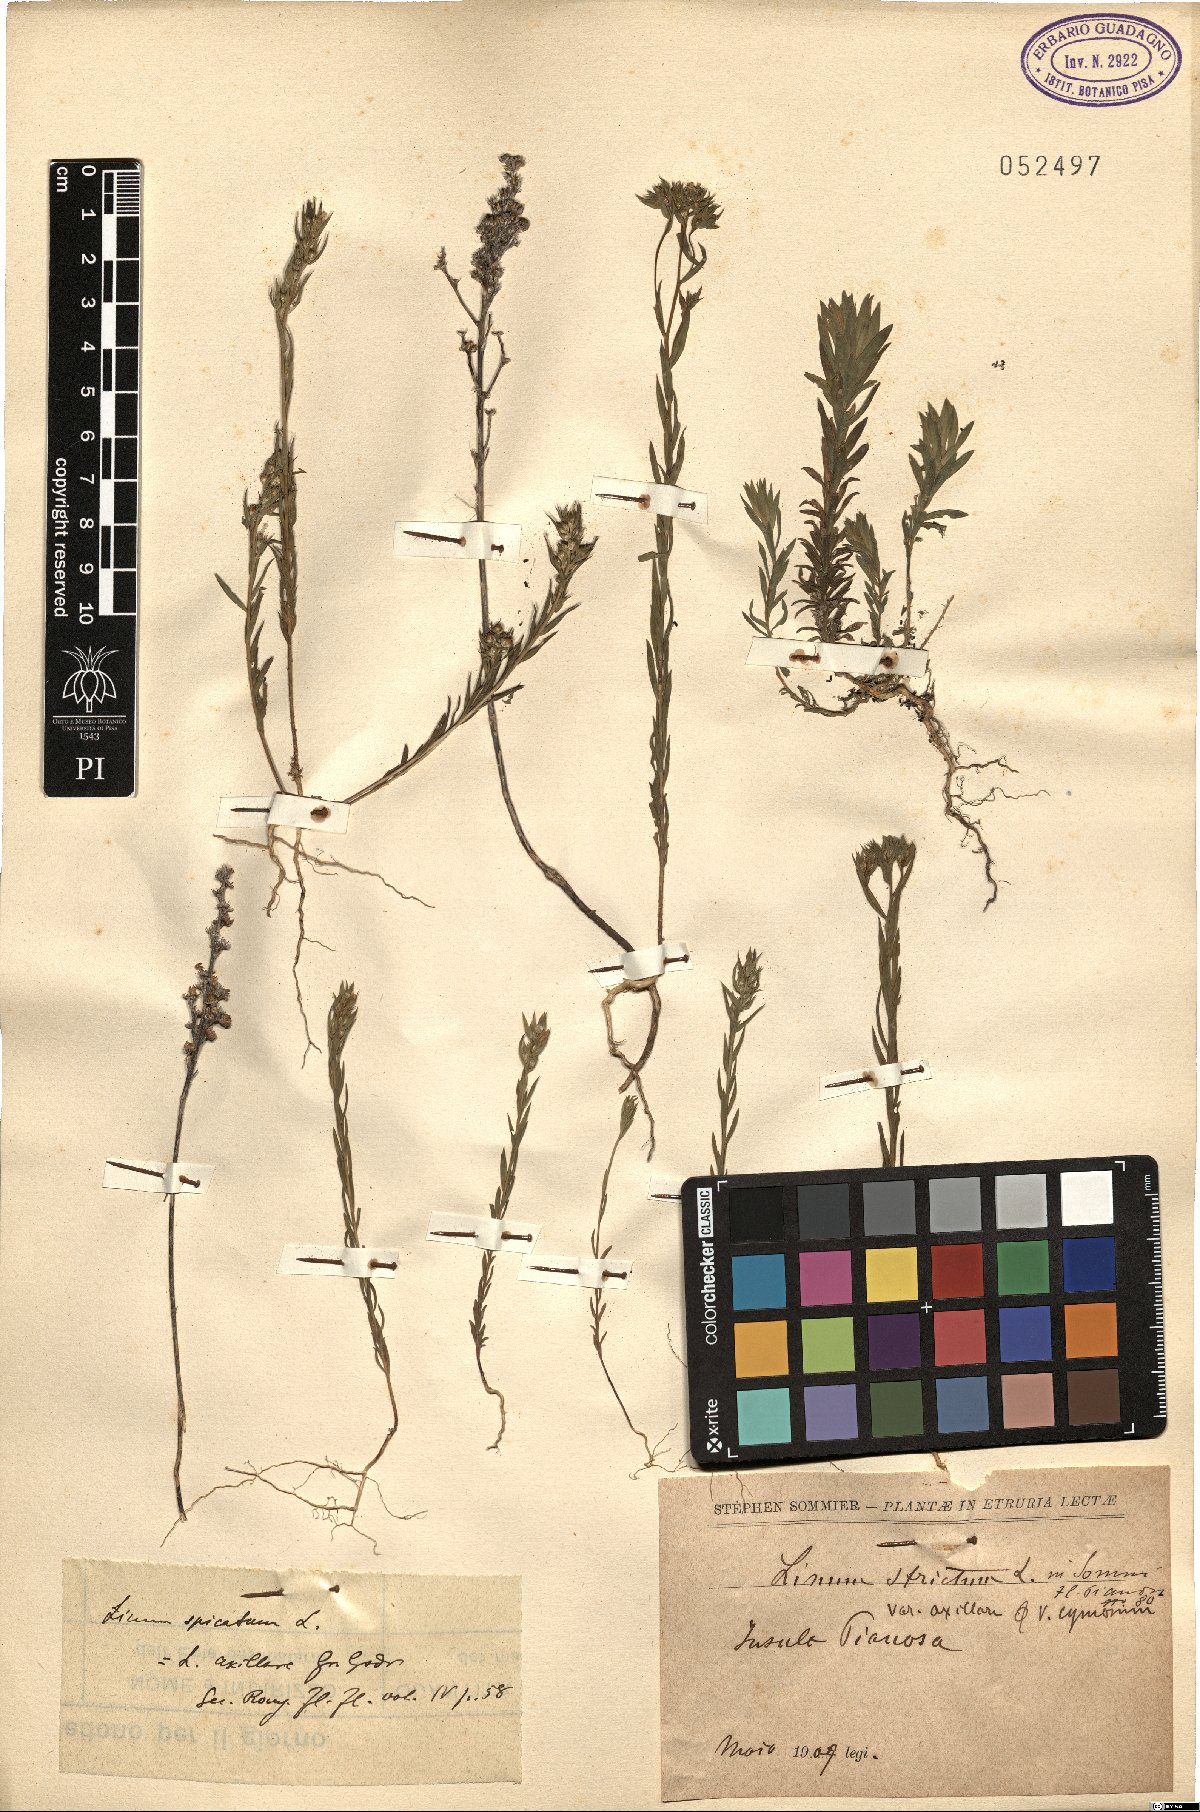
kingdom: Plantae
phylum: Tracheophyta
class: Magnoliopsida
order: Malpighiales
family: Linaceae
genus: Linum
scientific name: Linum strictum
